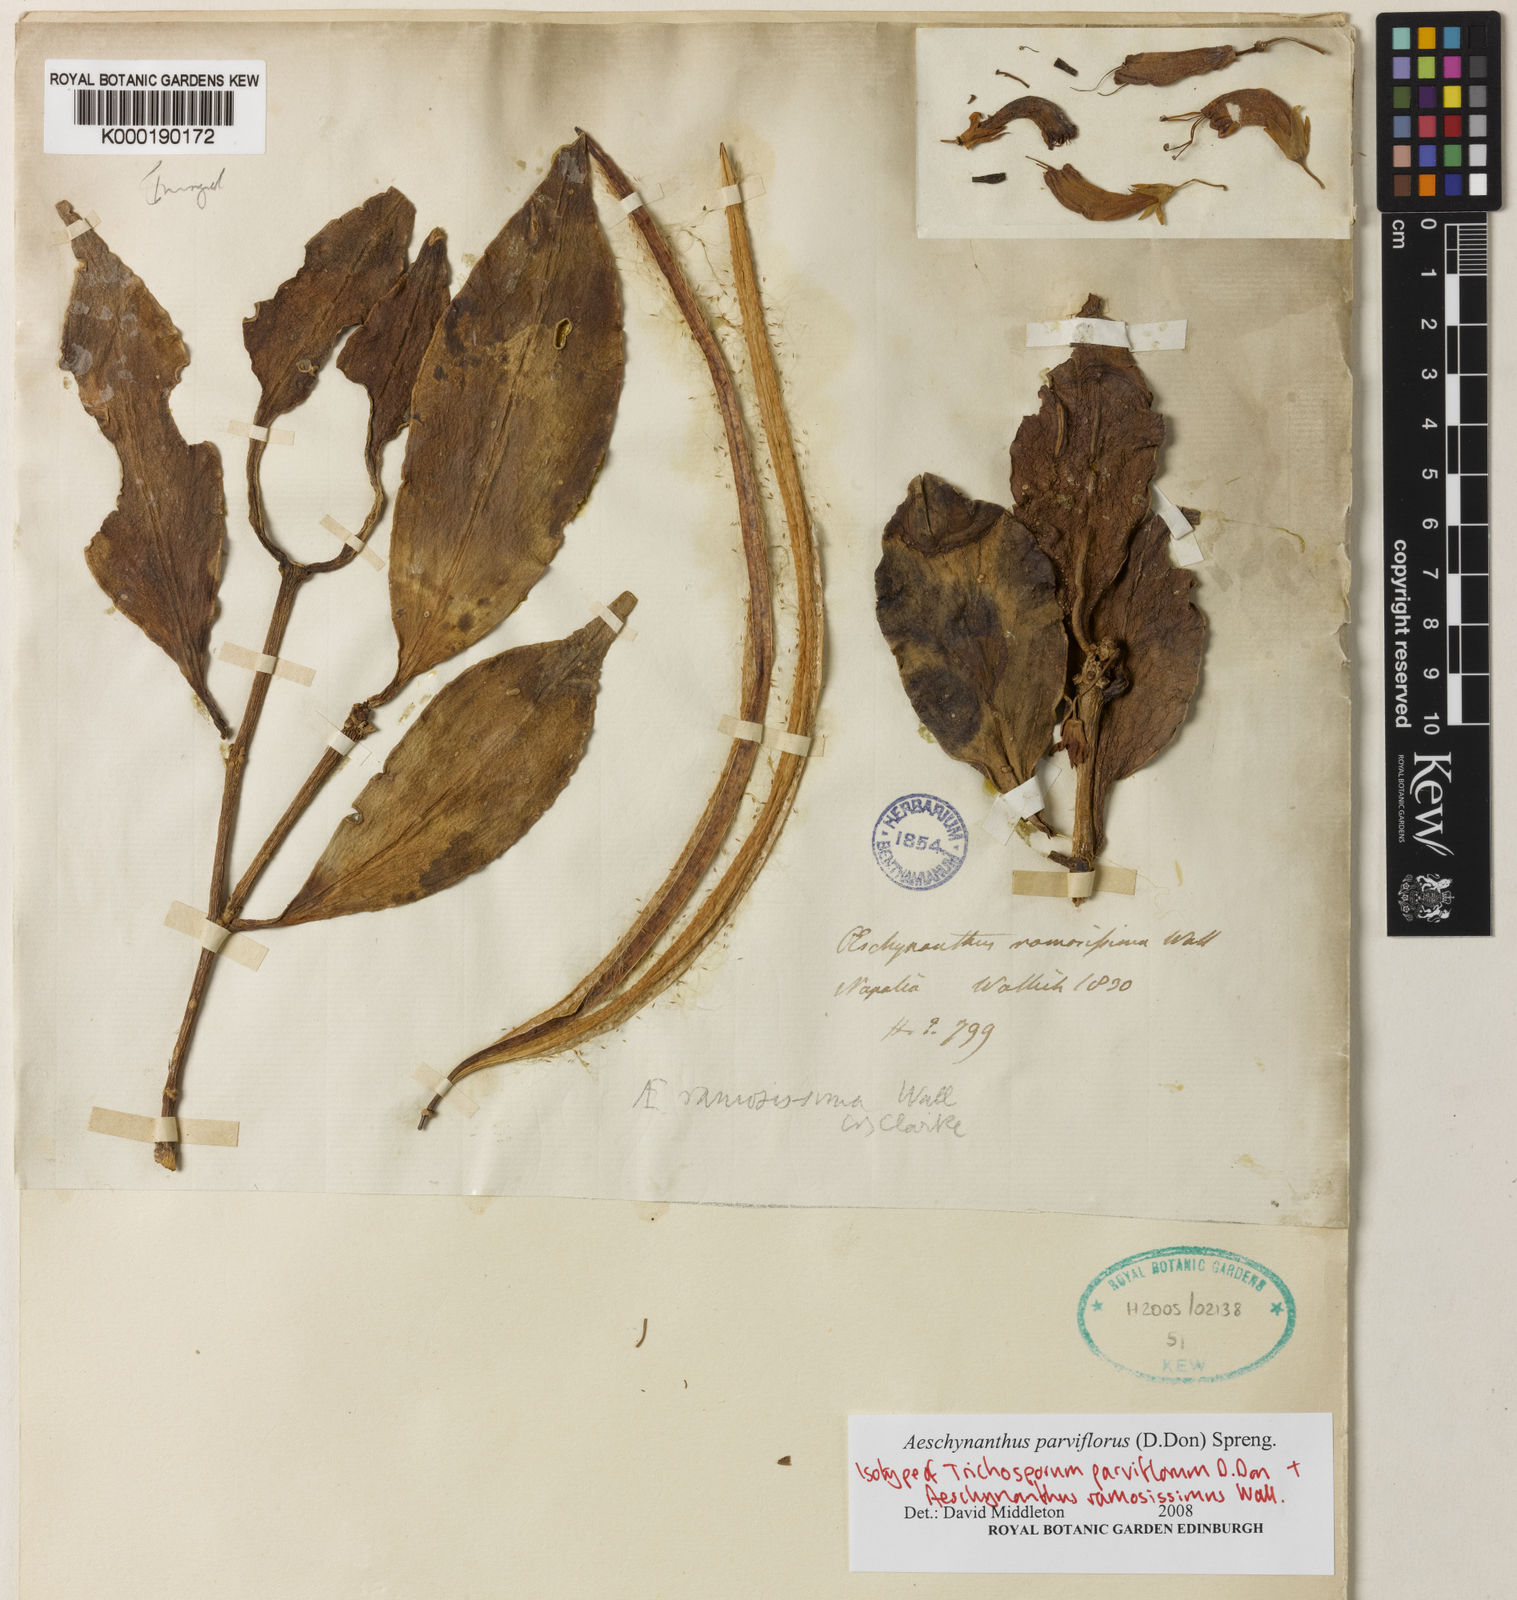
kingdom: Plantae
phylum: Tracheophyta
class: Magnoliopsida
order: Lamiales
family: Gesneriaceae
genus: Aeschynanthus
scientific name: Aeschynanthus parviflorus
